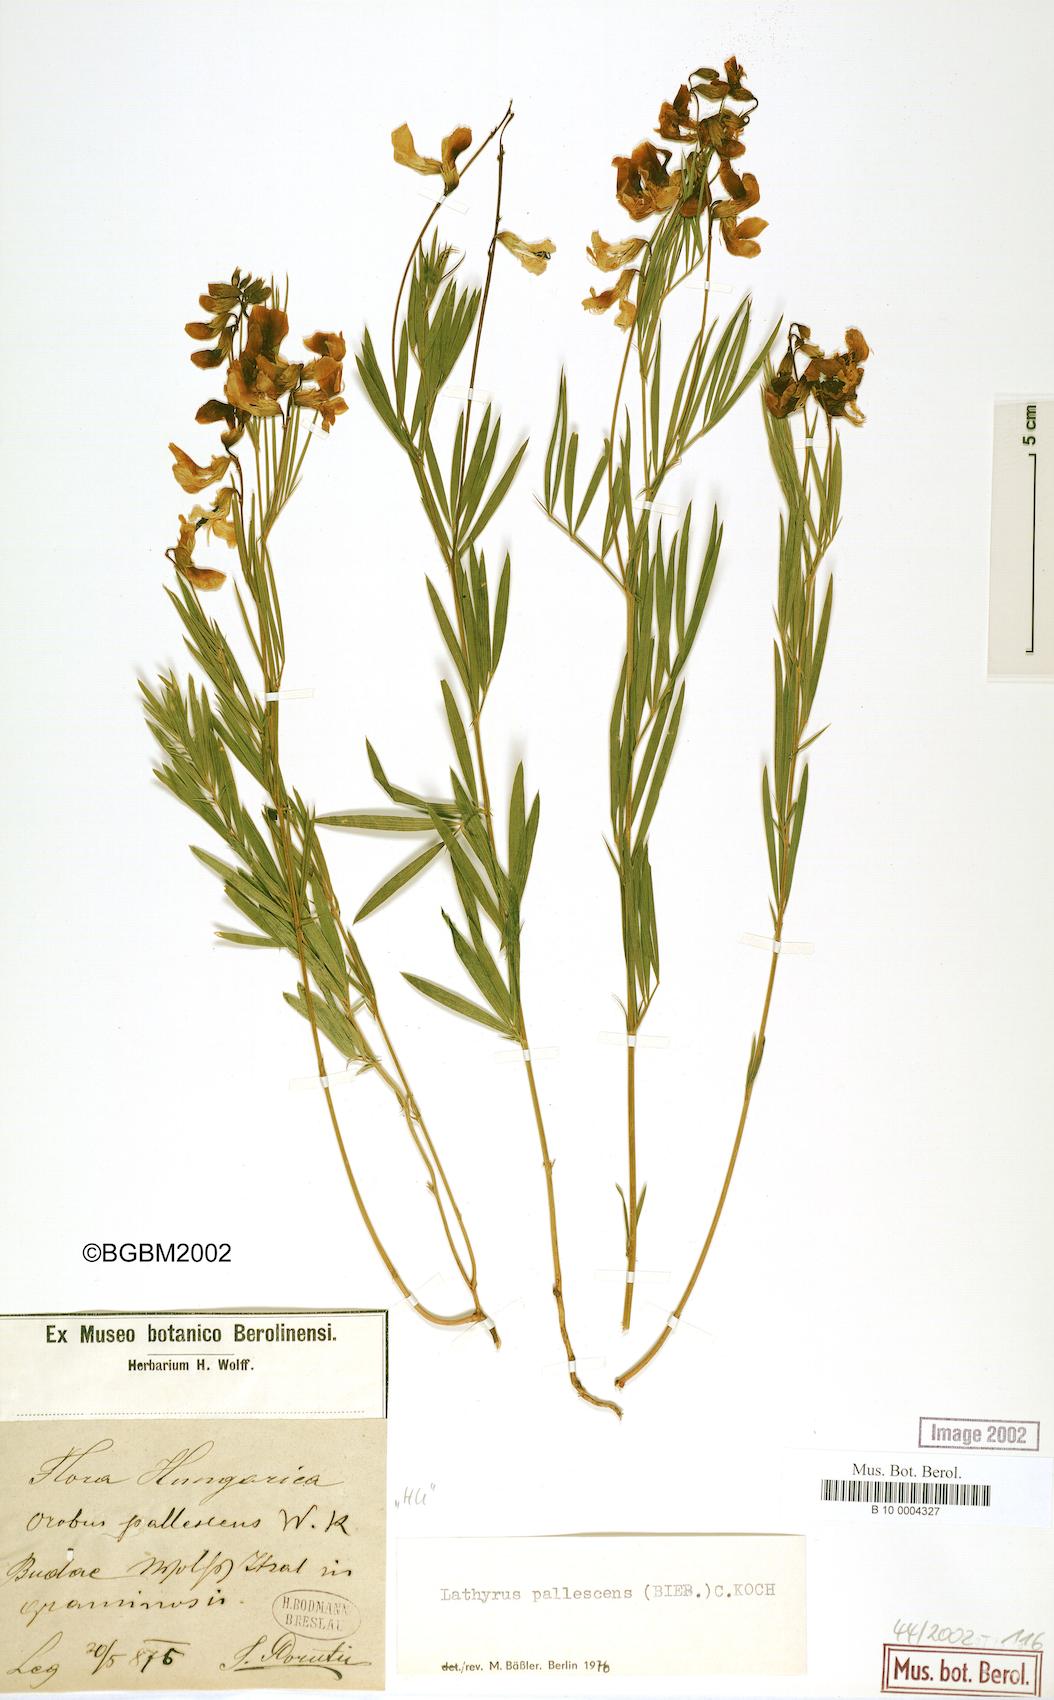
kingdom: Plantae
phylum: Tracheophyta
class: Magnoliopsida
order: Fabales
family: Fabaceae
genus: Lathyrus
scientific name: Lathyrus pallescens
